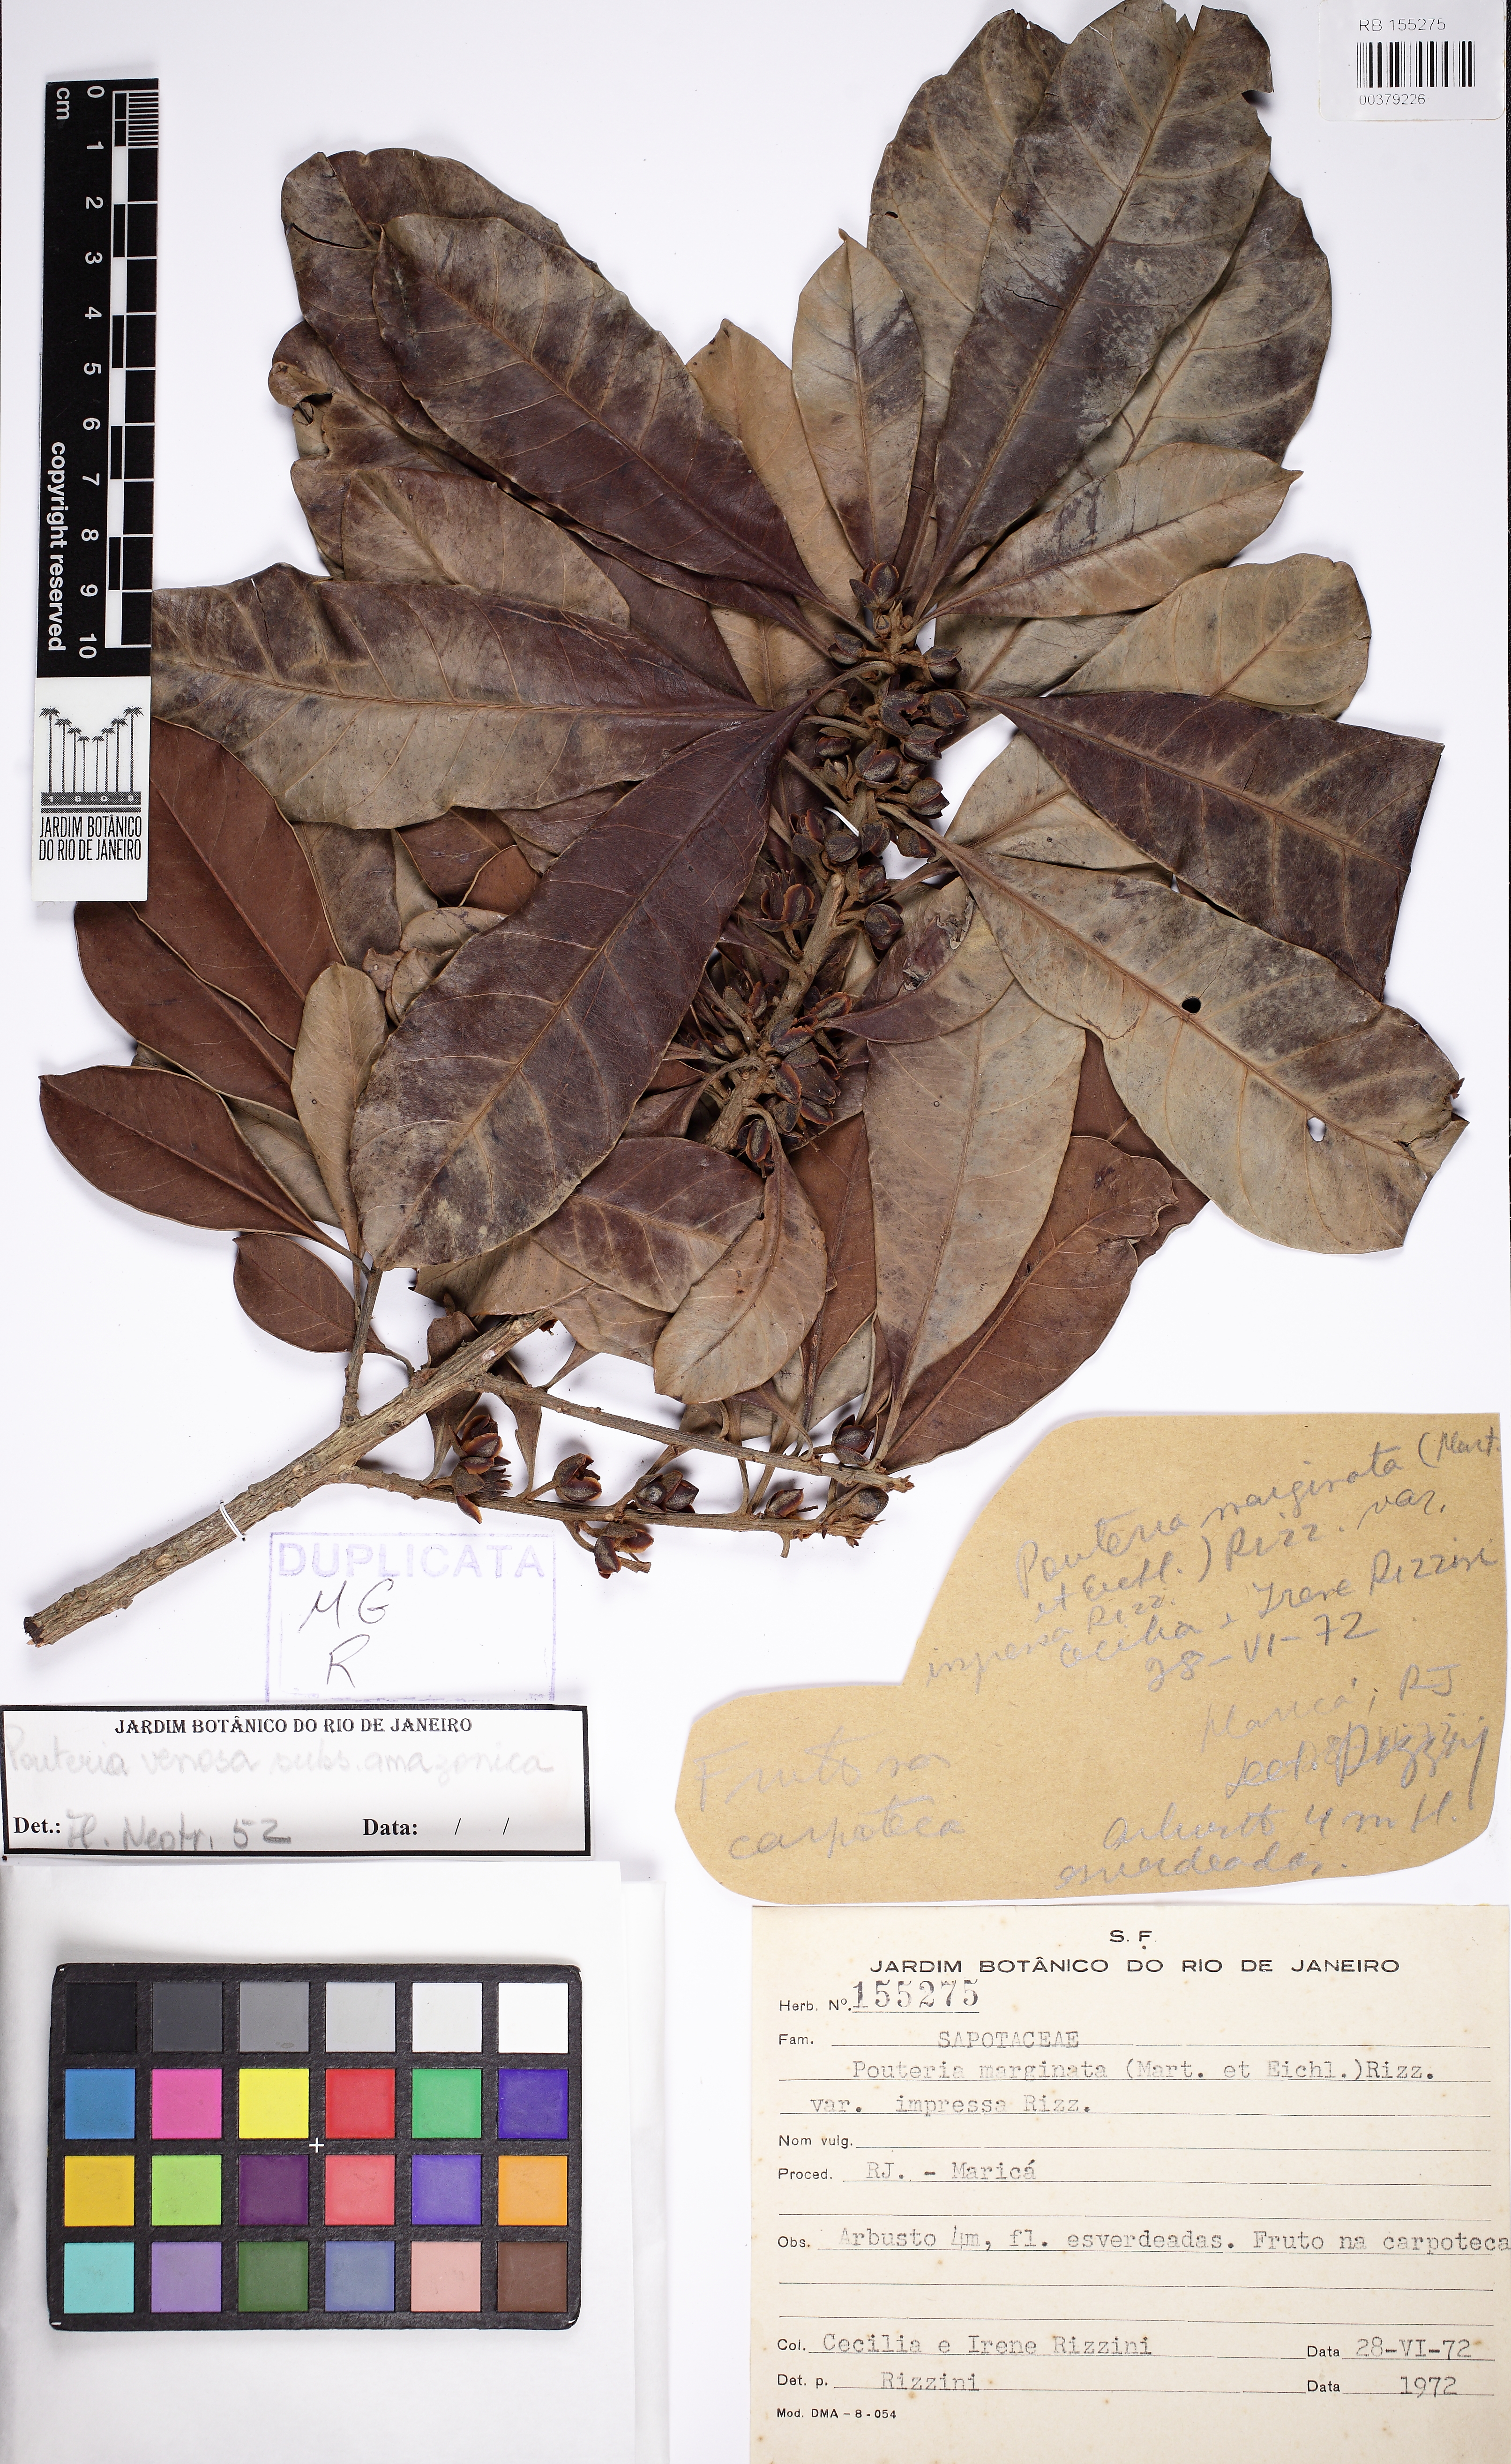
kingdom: Plantae
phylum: Tracheophyta
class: Magnoliopsida
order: Ericales
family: Sapotaceae
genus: Pouteria
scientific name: Pouteria venosa
